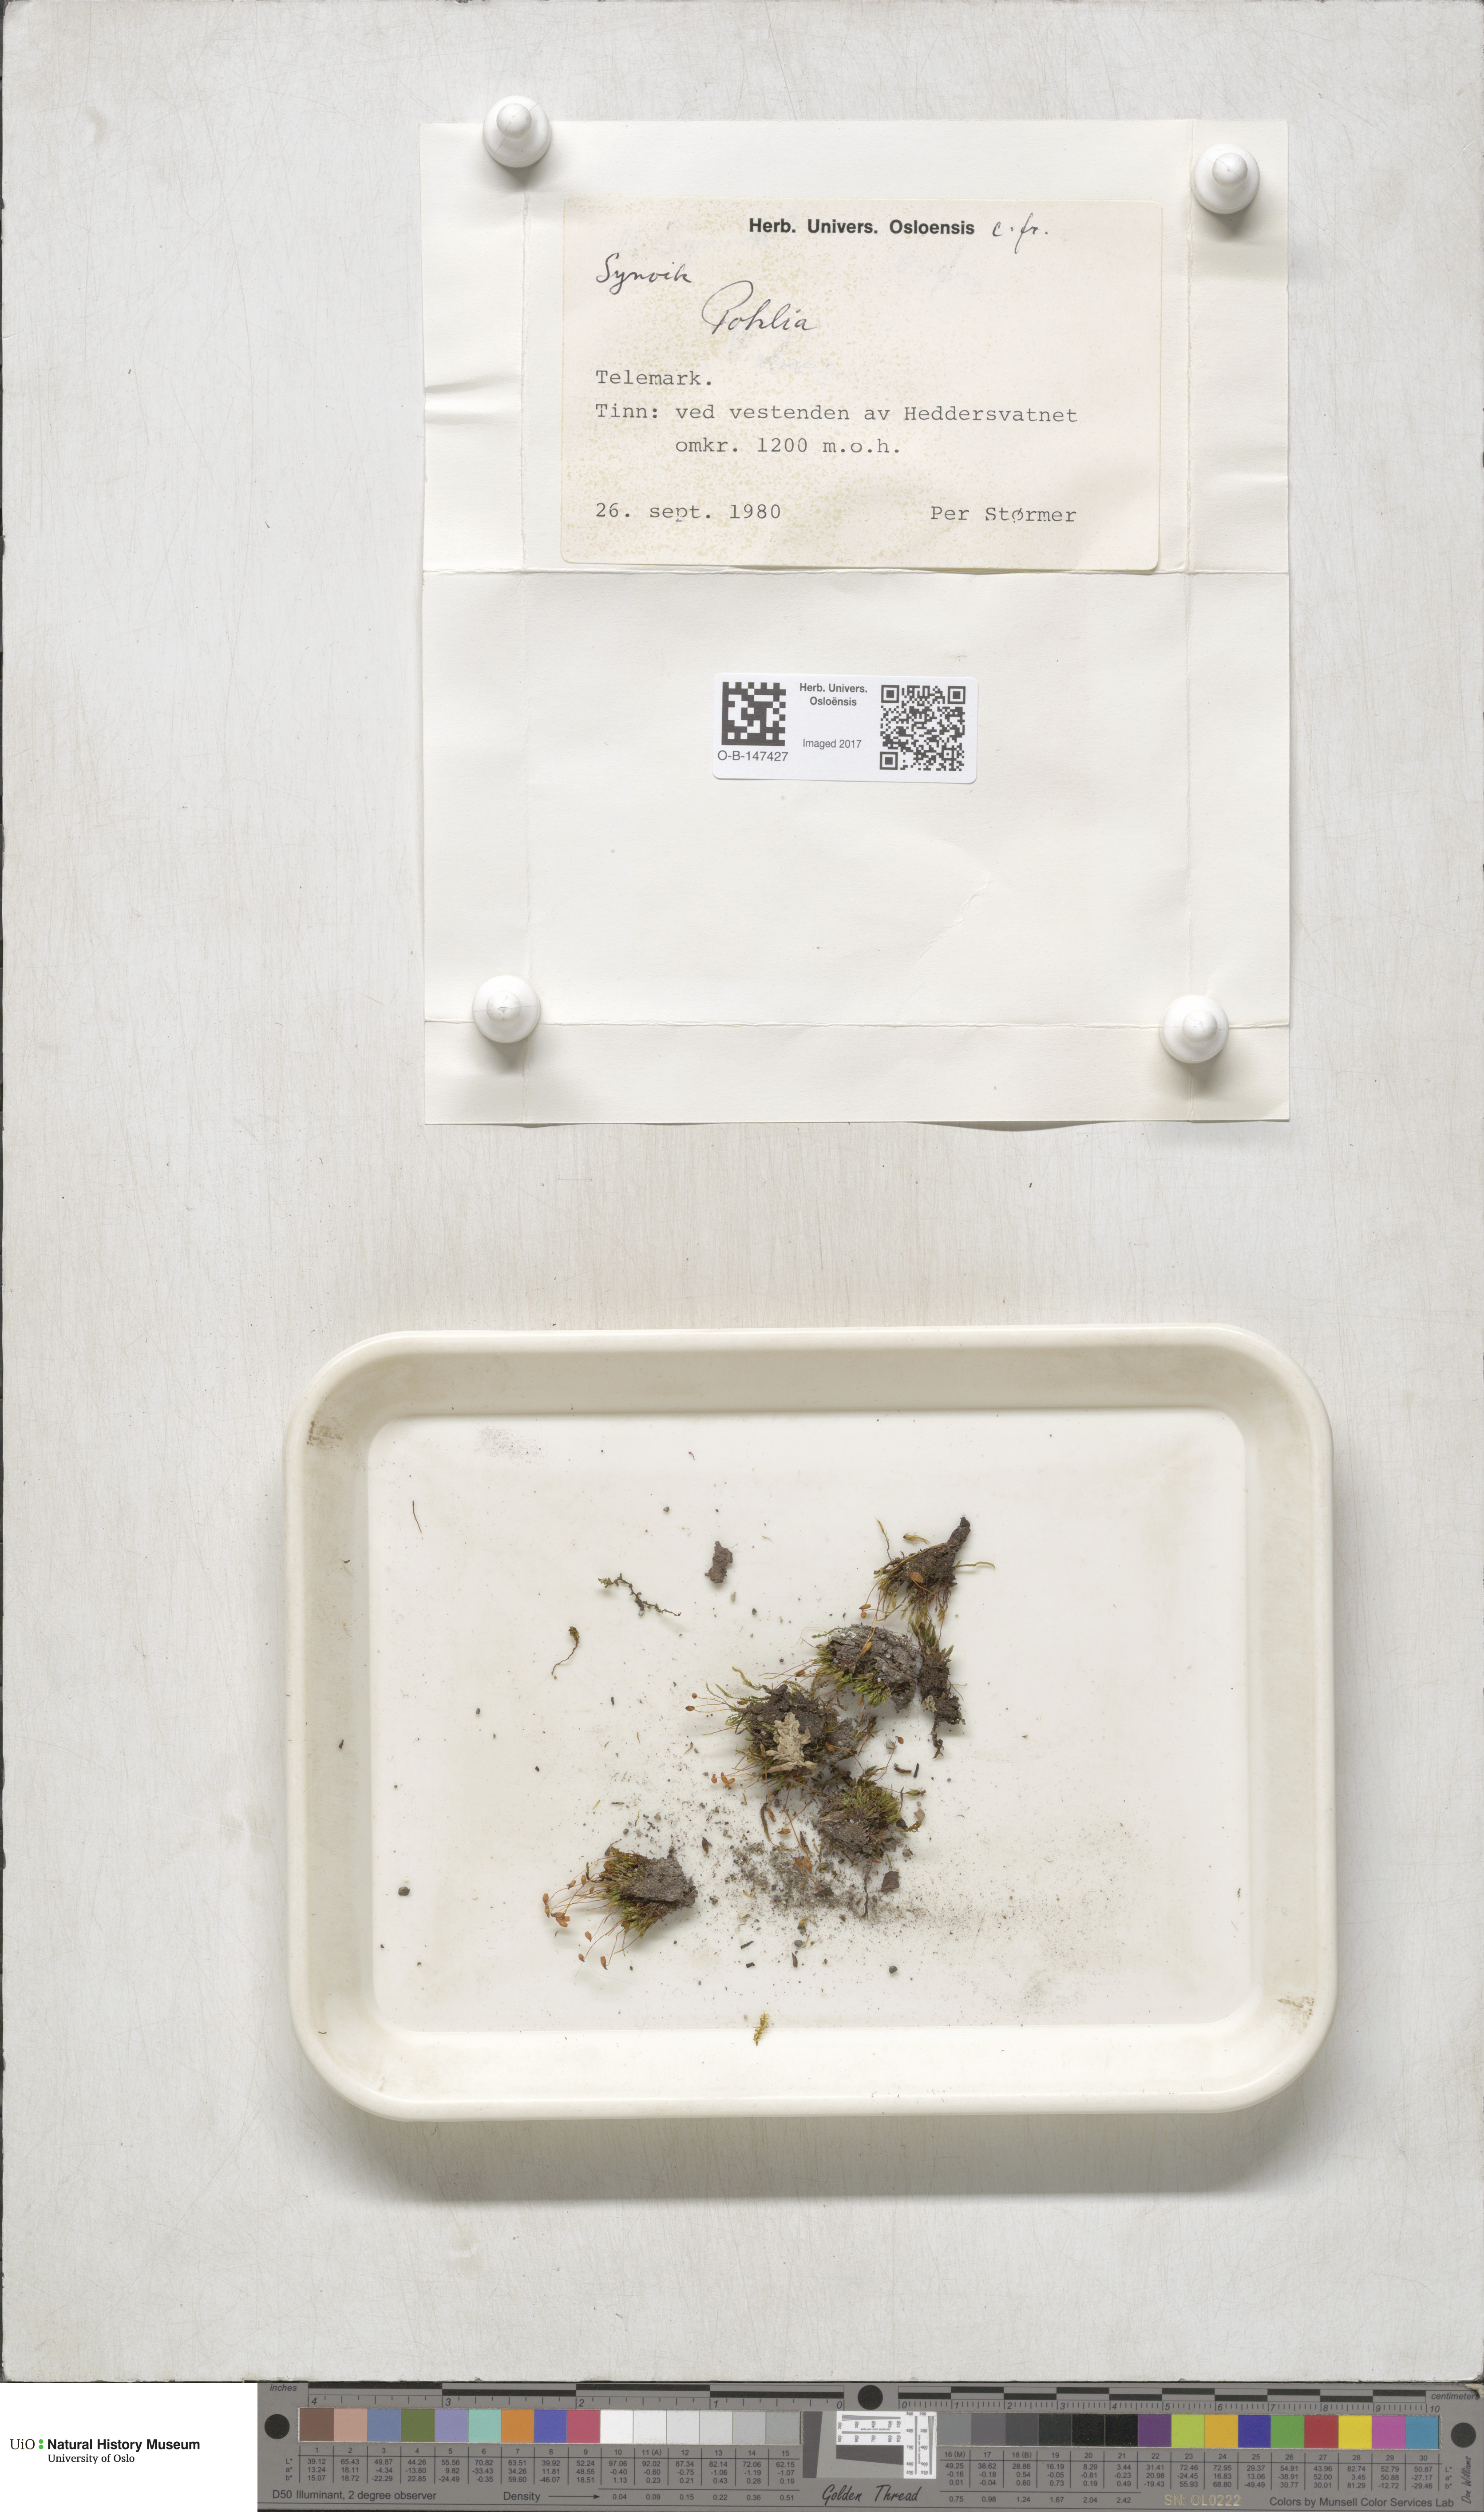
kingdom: Plantae
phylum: Bryophyta
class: Bryopsida
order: Bryales
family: Mniaceae
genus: Pohlia
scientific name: Pohlia
